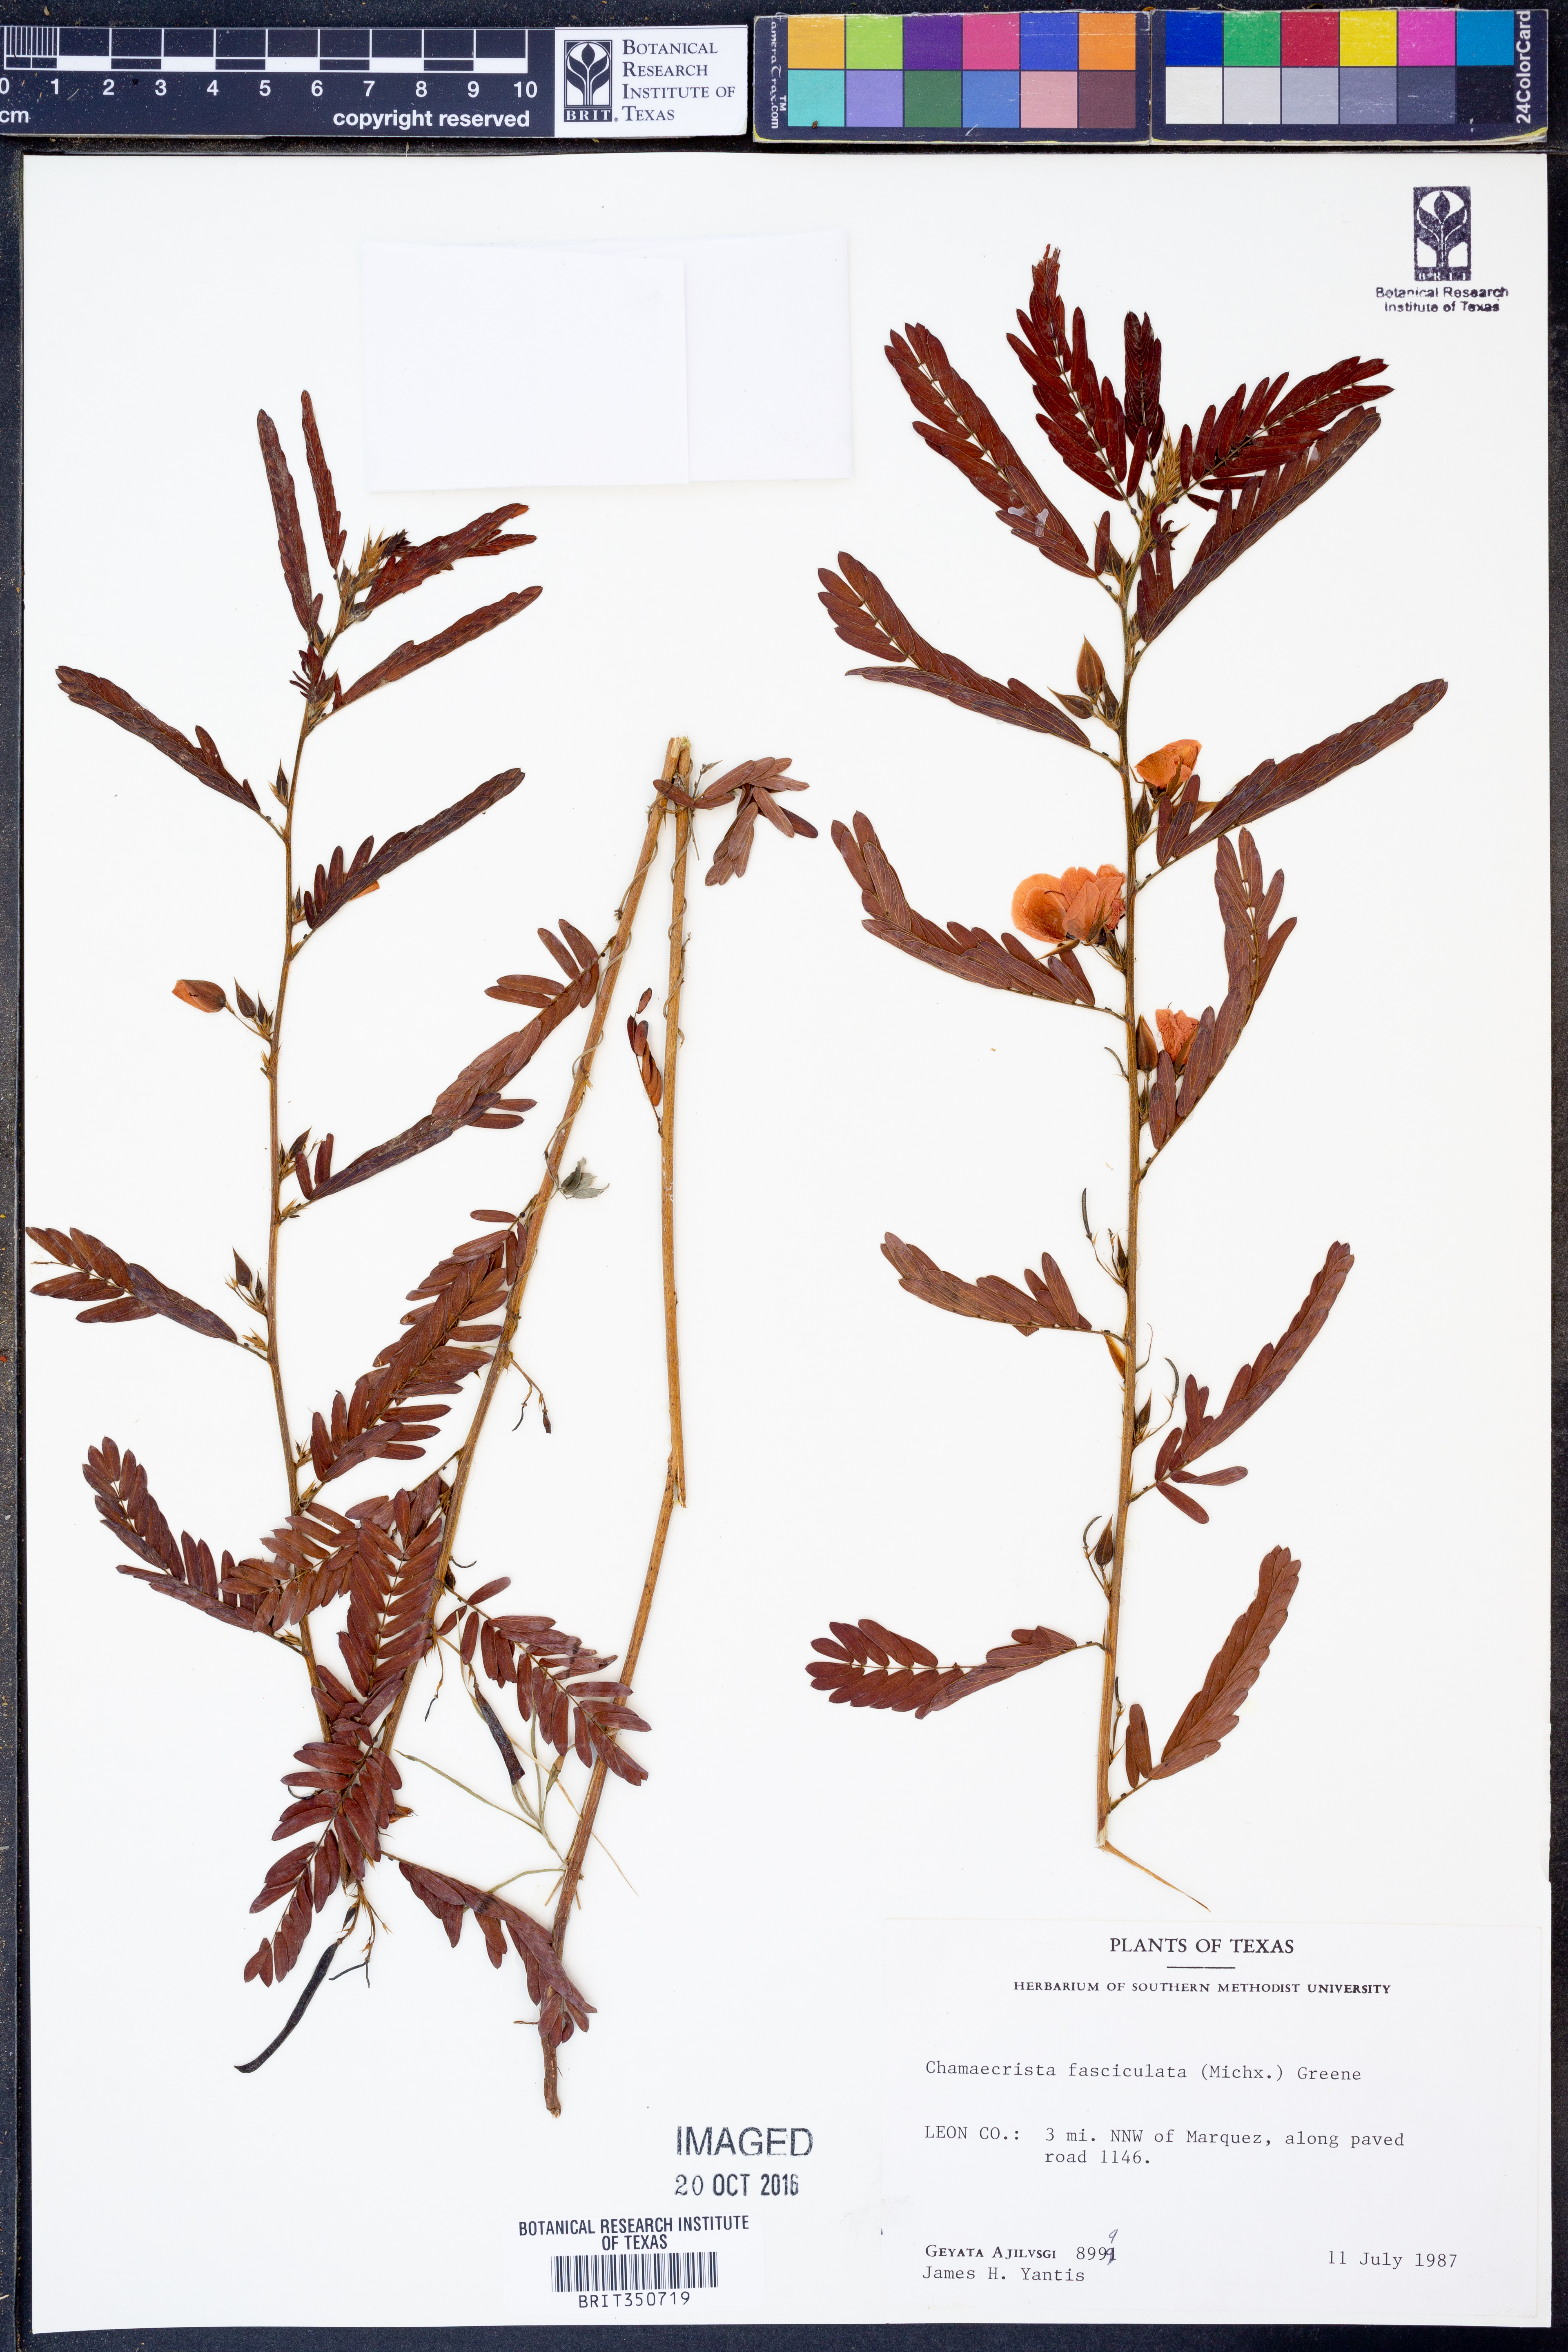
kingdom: Plantae
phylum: Tracheophyta
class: Magnoliopsida
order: Fabales
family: Fabaceae
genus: Chamaecrista
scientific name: Chamaecrista fasciculata
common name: Golden cassia
